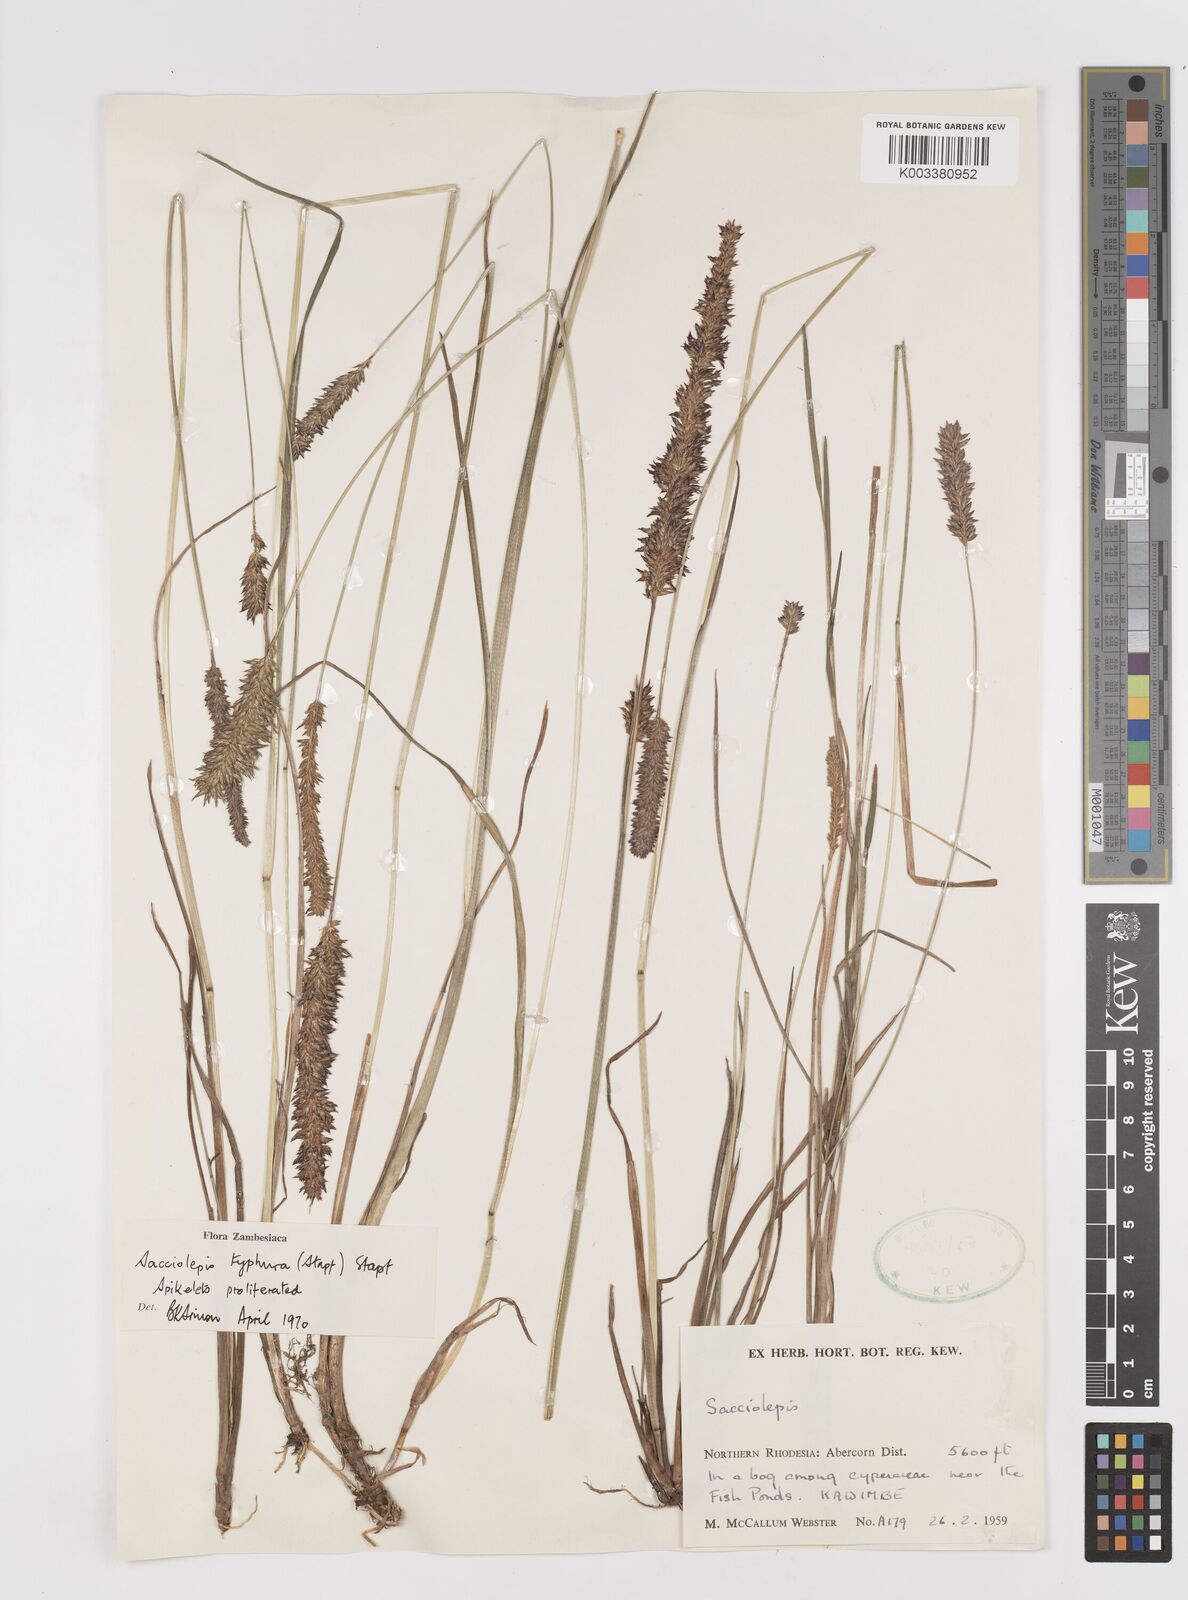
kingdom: Plantae
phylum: Tracheophyta
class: Liliopsida
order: Poales
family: Poaceae
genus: Sacciolepis
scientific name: Sacciolepis typhura
